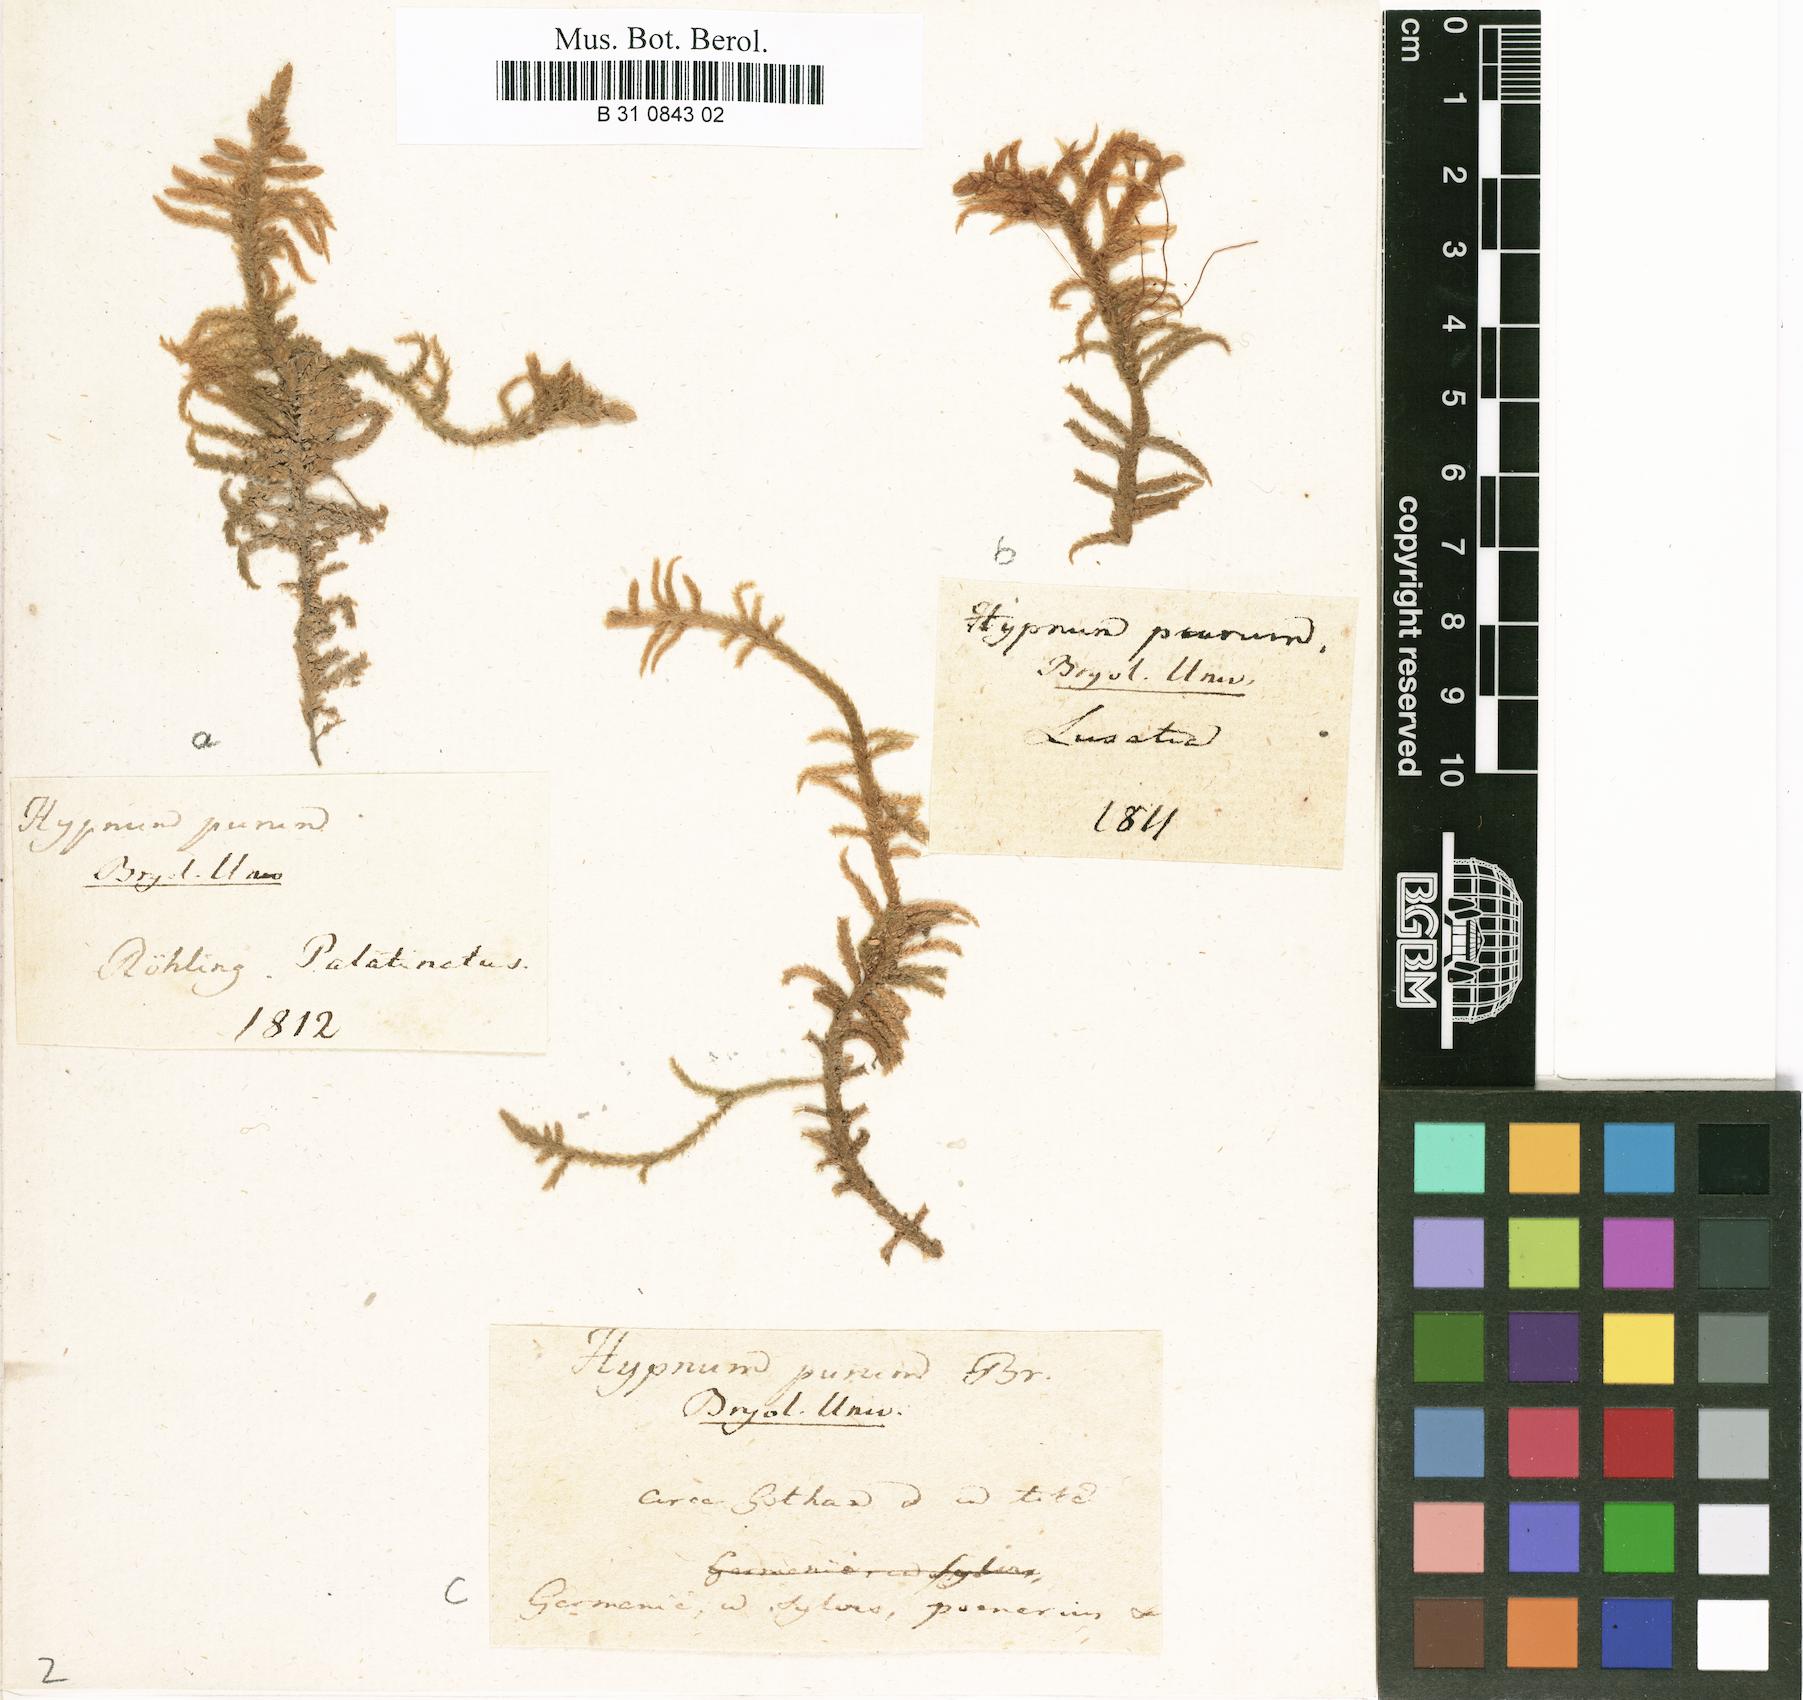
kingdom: Plantae
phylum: Bryophyta
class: Bryopsida
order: Hypnales
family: Brachytheciaceae
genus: Pseudoscleropodium
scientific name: Pseudoscleropodium purum
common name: Neat feather-moss
